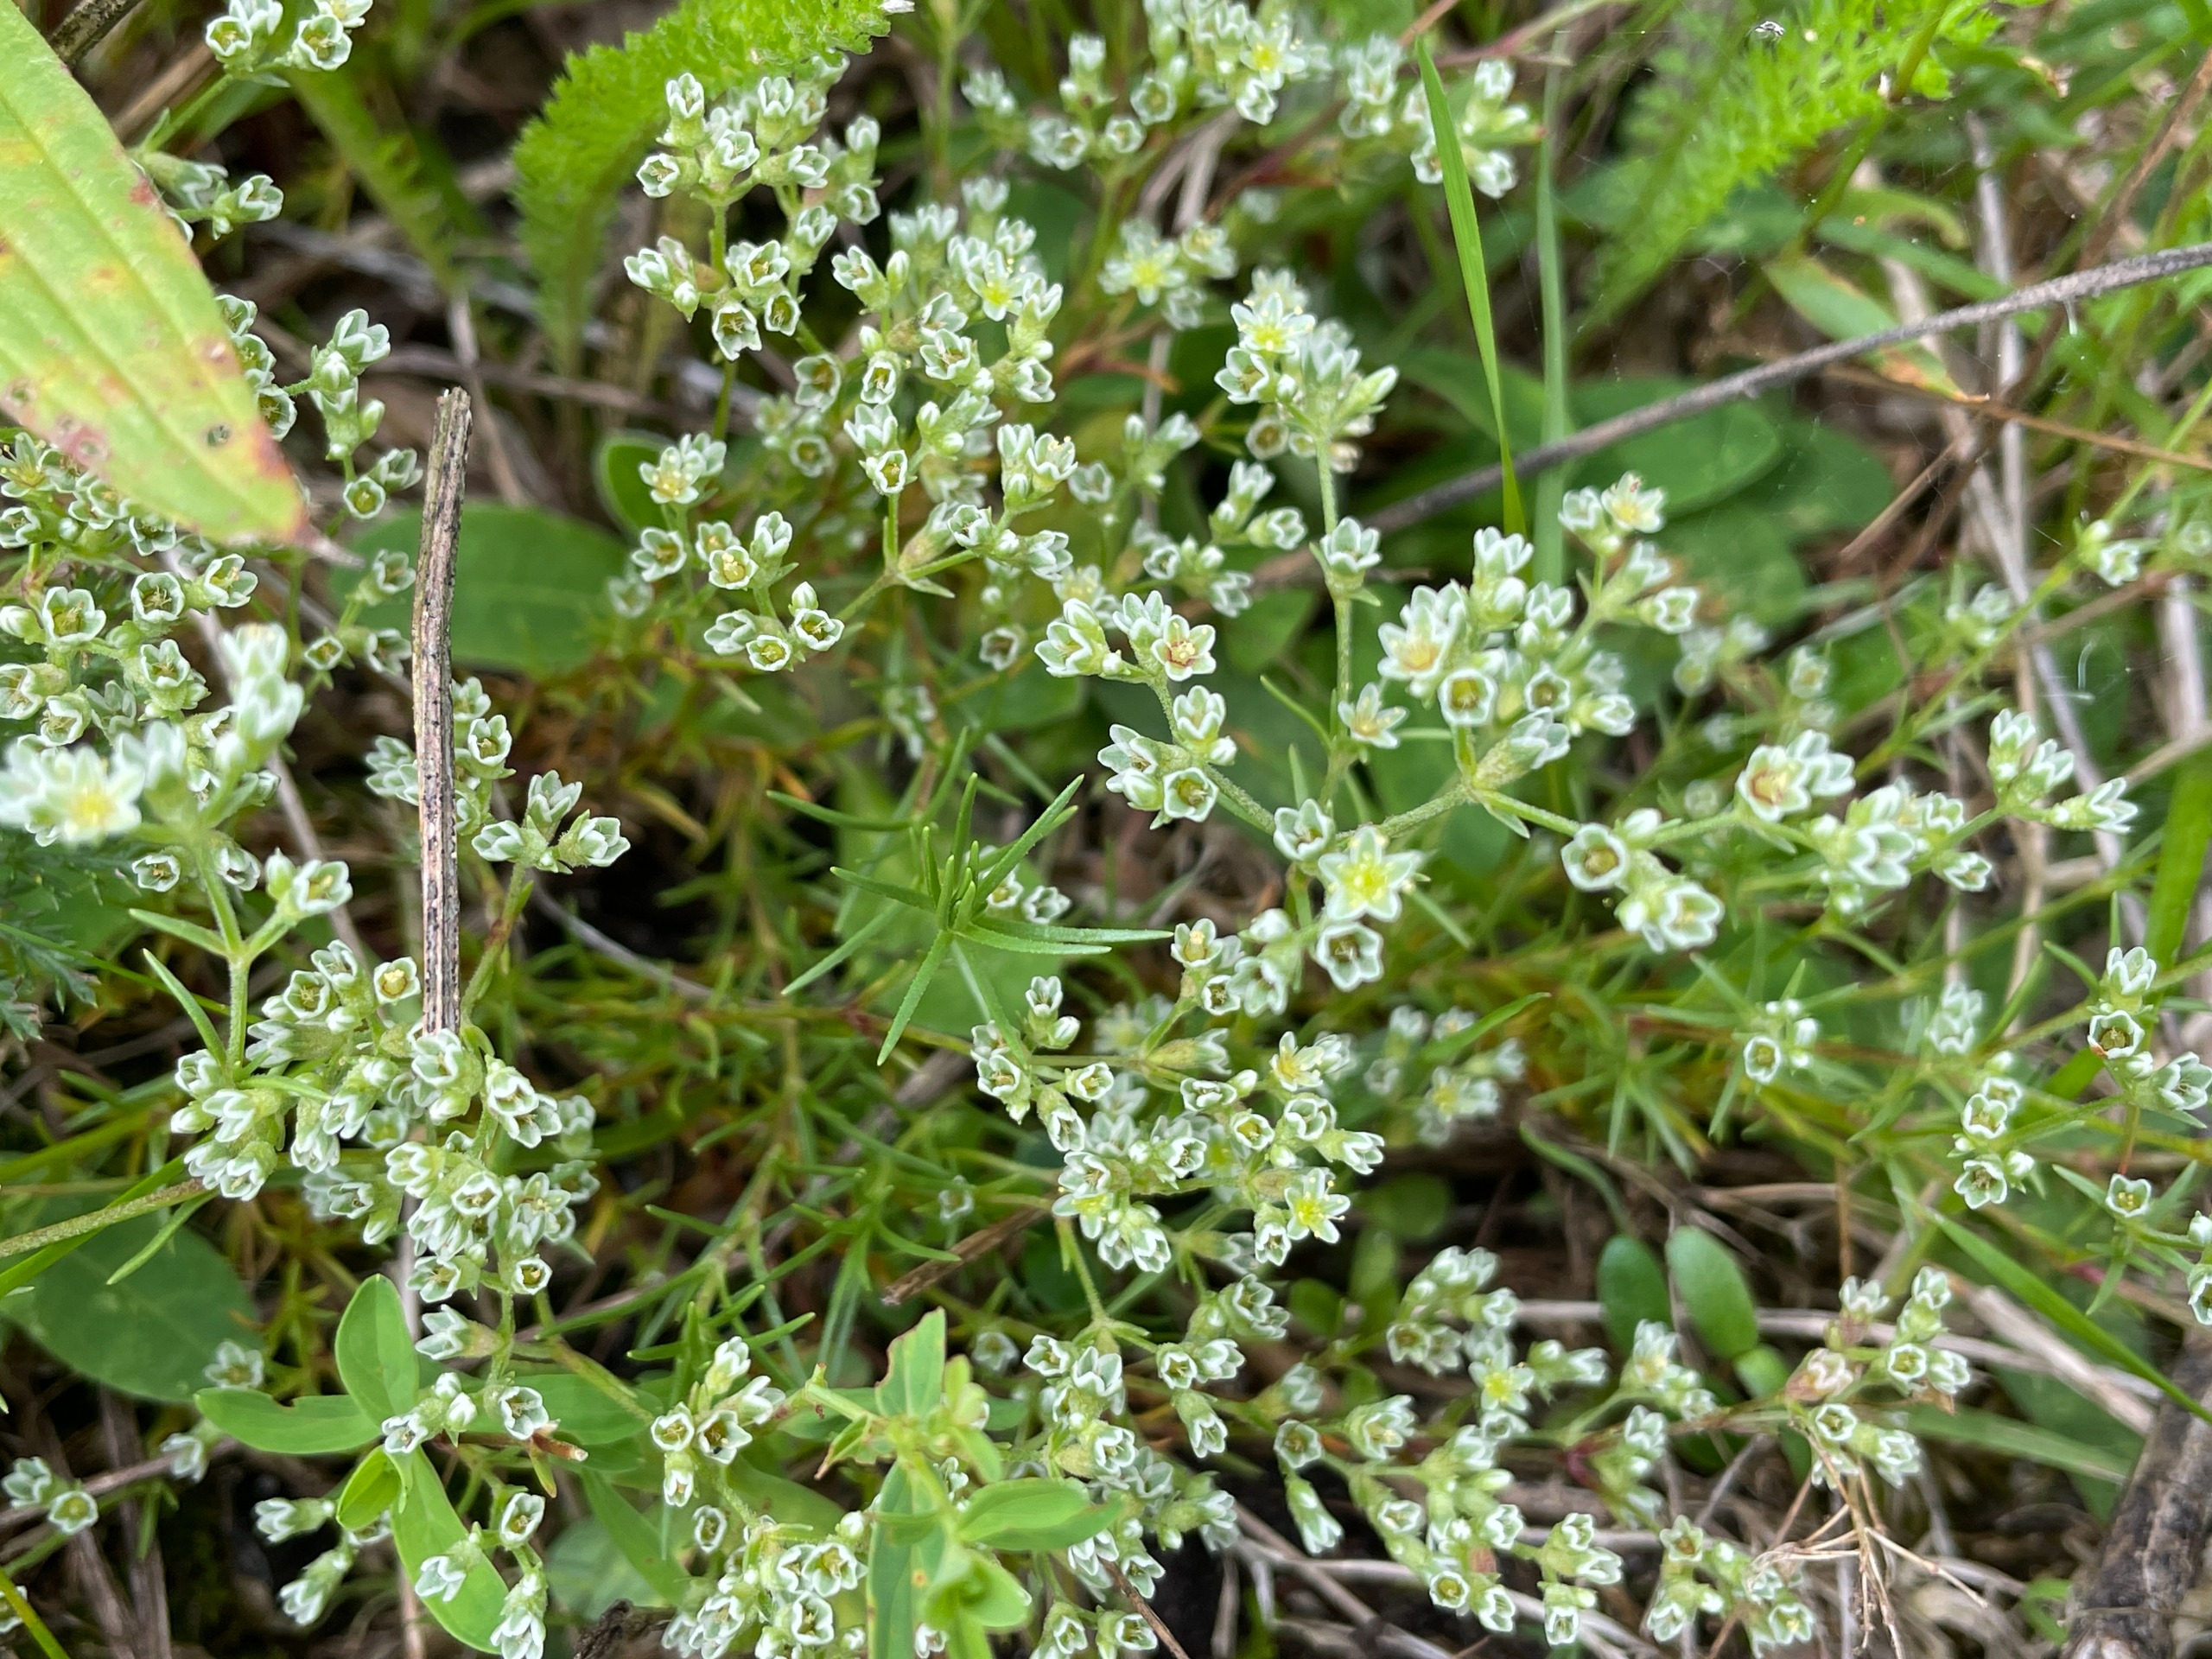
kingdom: Plantae
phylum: Tracheophyta
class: Magnoliopsida
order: Caryophyllales
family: Caryophyllaceae
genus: Scleranthus
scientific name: Scleranthus perennis
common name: Flerårig knavel
